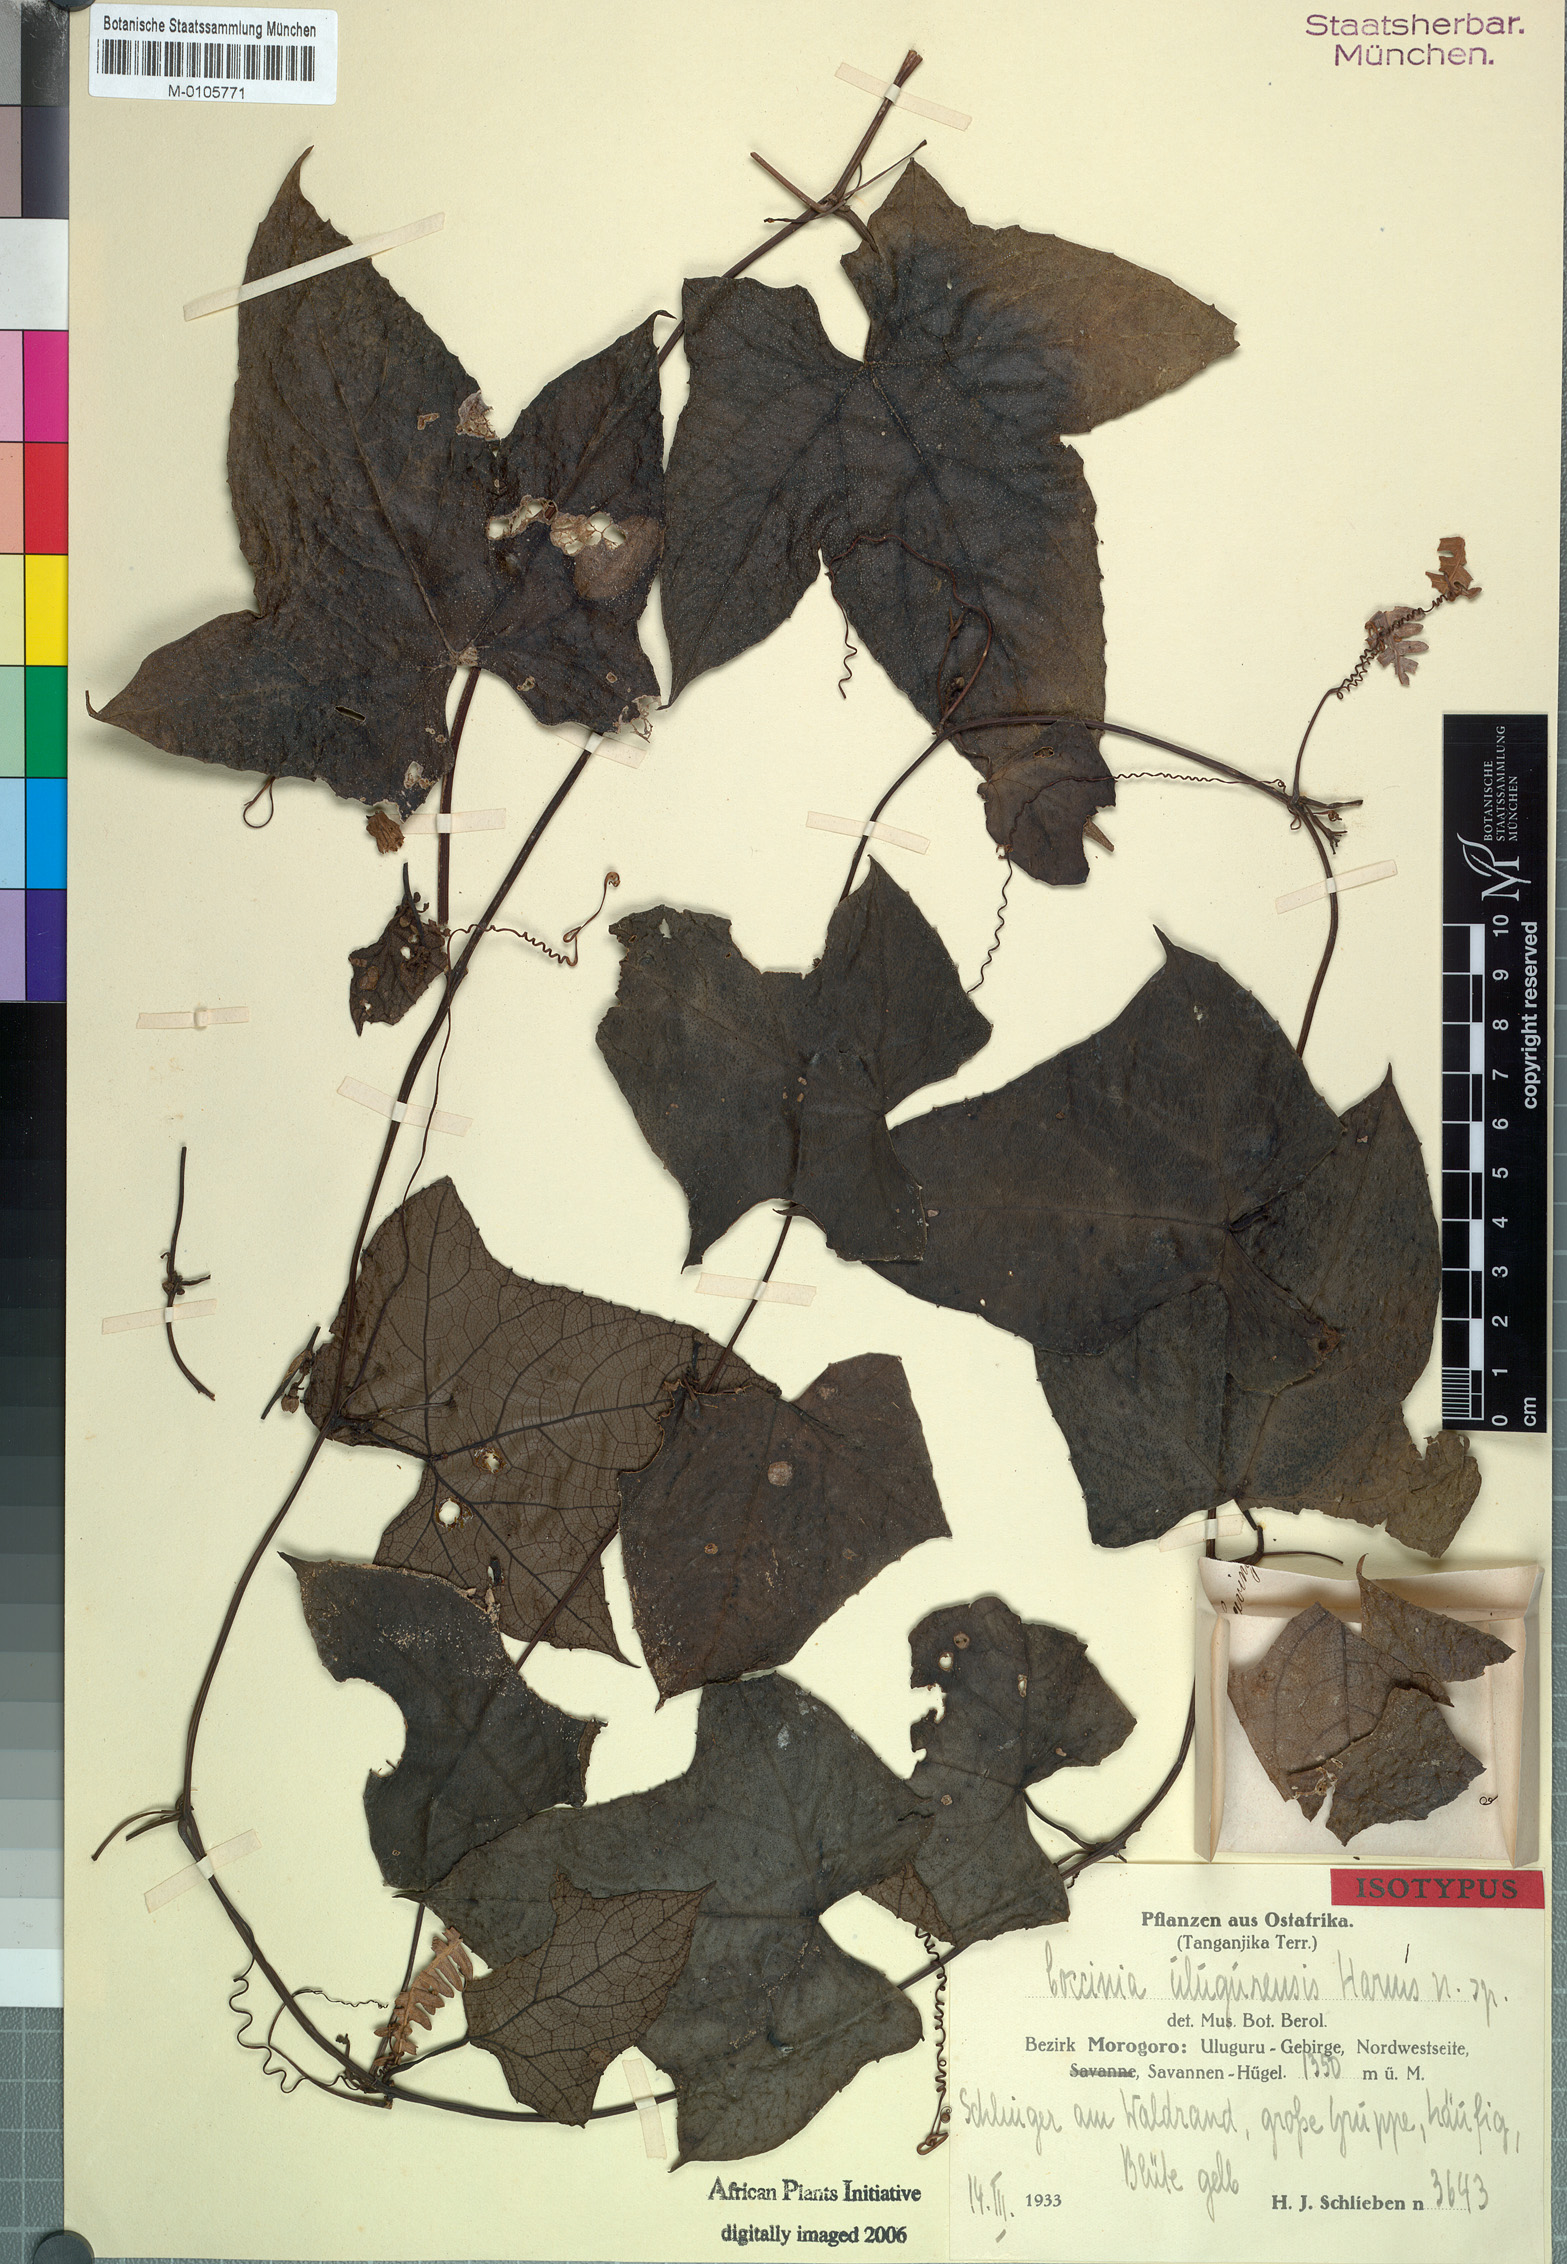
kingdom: Plantae
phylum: Tracheophyta
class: Magnoliopsida
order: Cucurbitales
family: Cucurbitaceae
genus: Coccinia
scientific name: Coccinia mildbraedii
